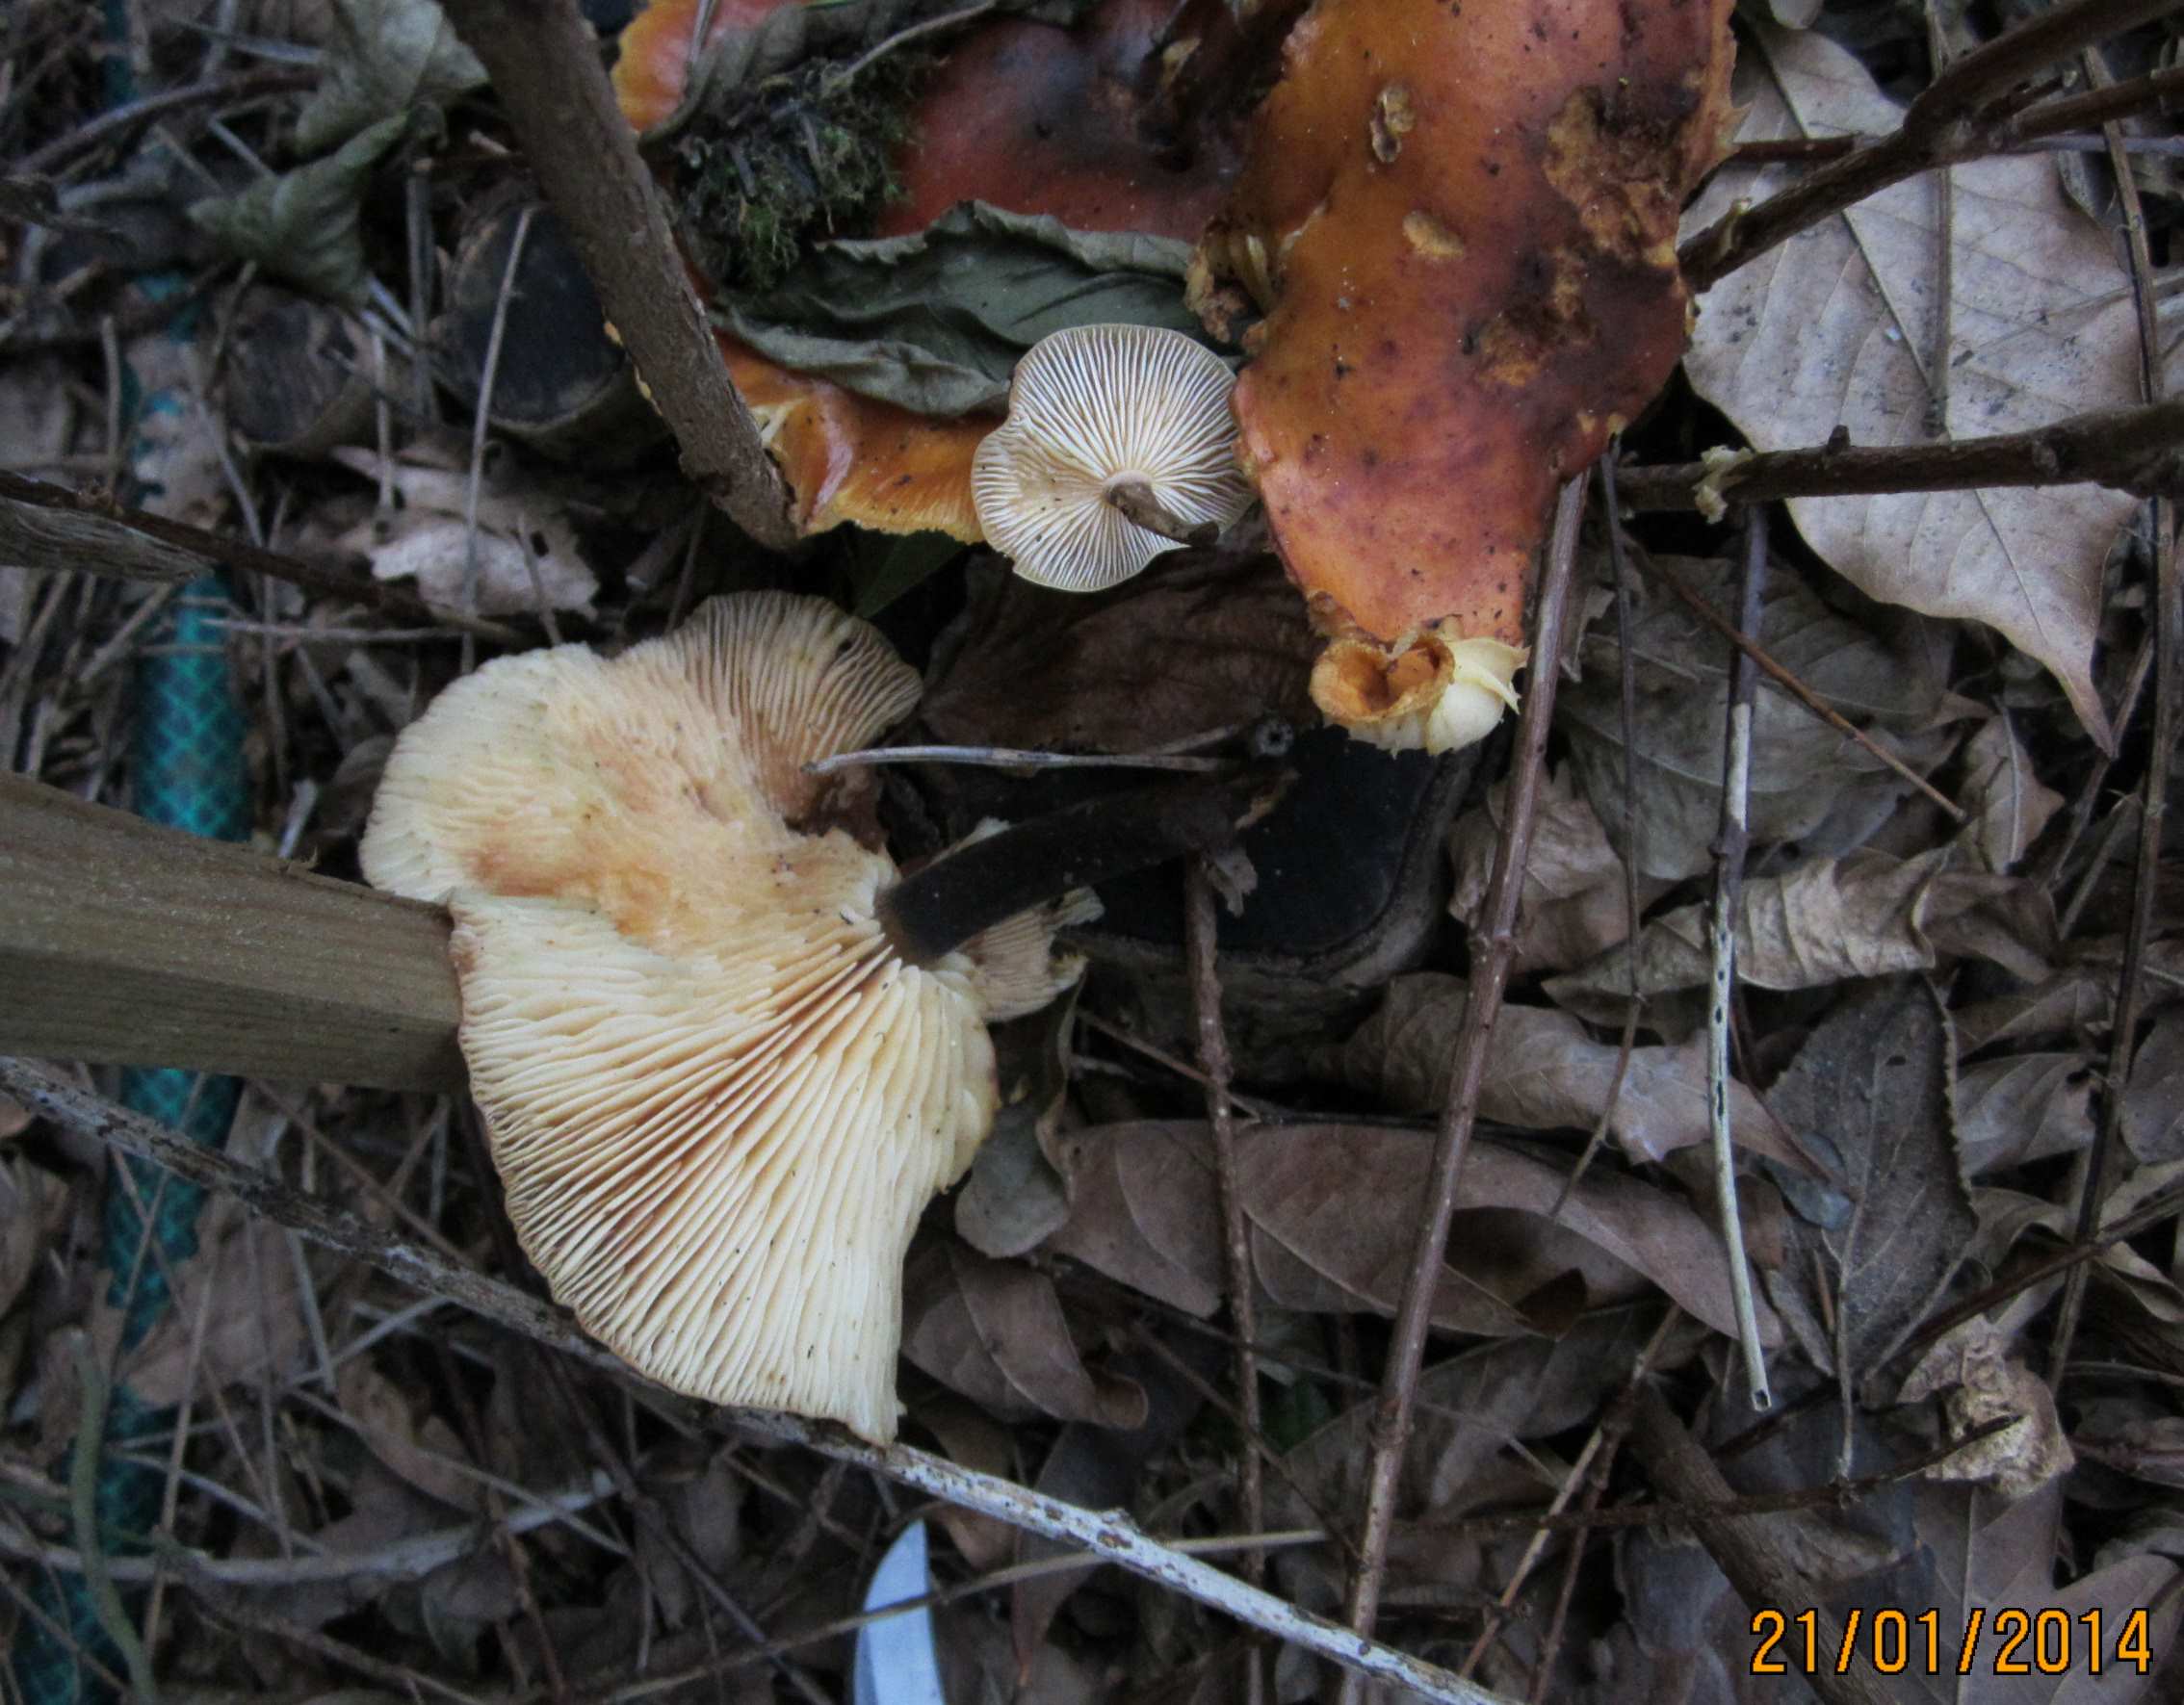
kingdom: Fungi
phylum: Basidiomycota
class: Agaricomycetes
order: Agaricales
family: Physalacriaceae
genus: Flammulina
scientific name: Flammulina velutipes
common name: gul fløjlsfod
